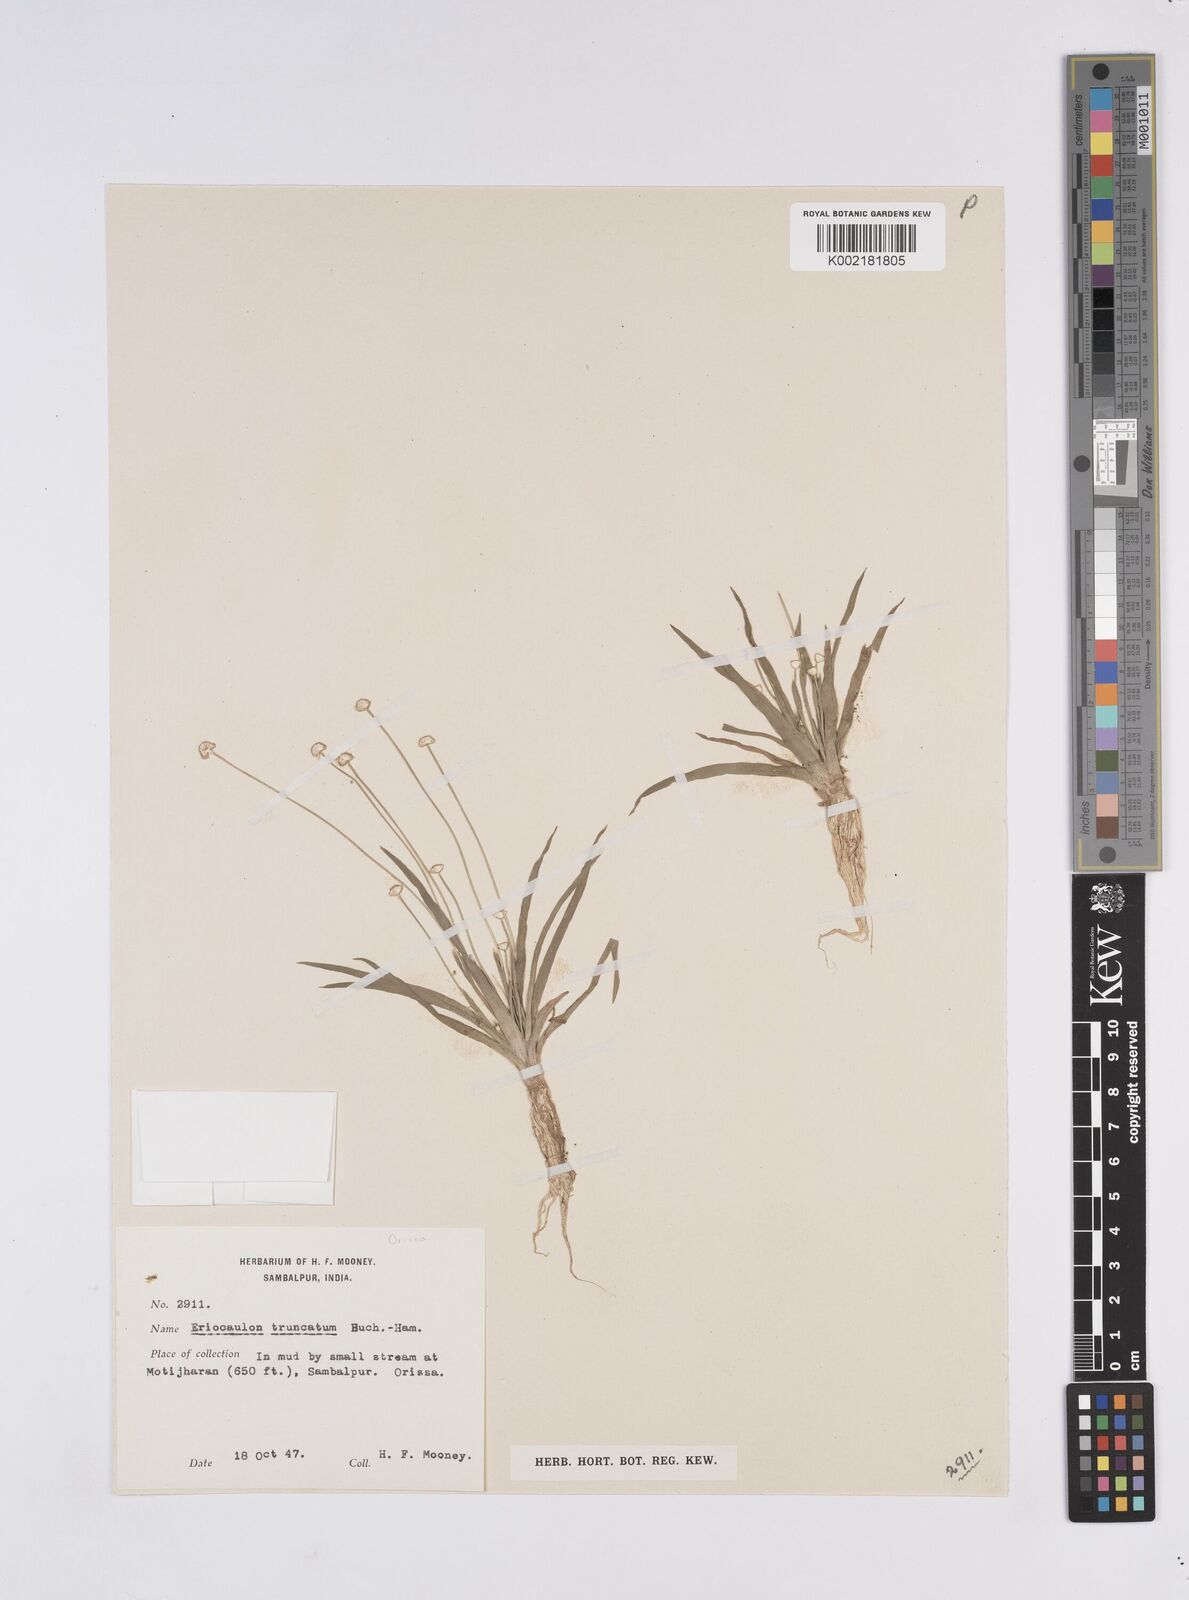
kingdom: Plantae
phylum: Tracheophyta
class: Liliopsida
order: Poales
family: Eriocaulaceae
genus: Eriocaulon
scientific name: Eriocaulon truncatum
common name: Short pipe-wort
